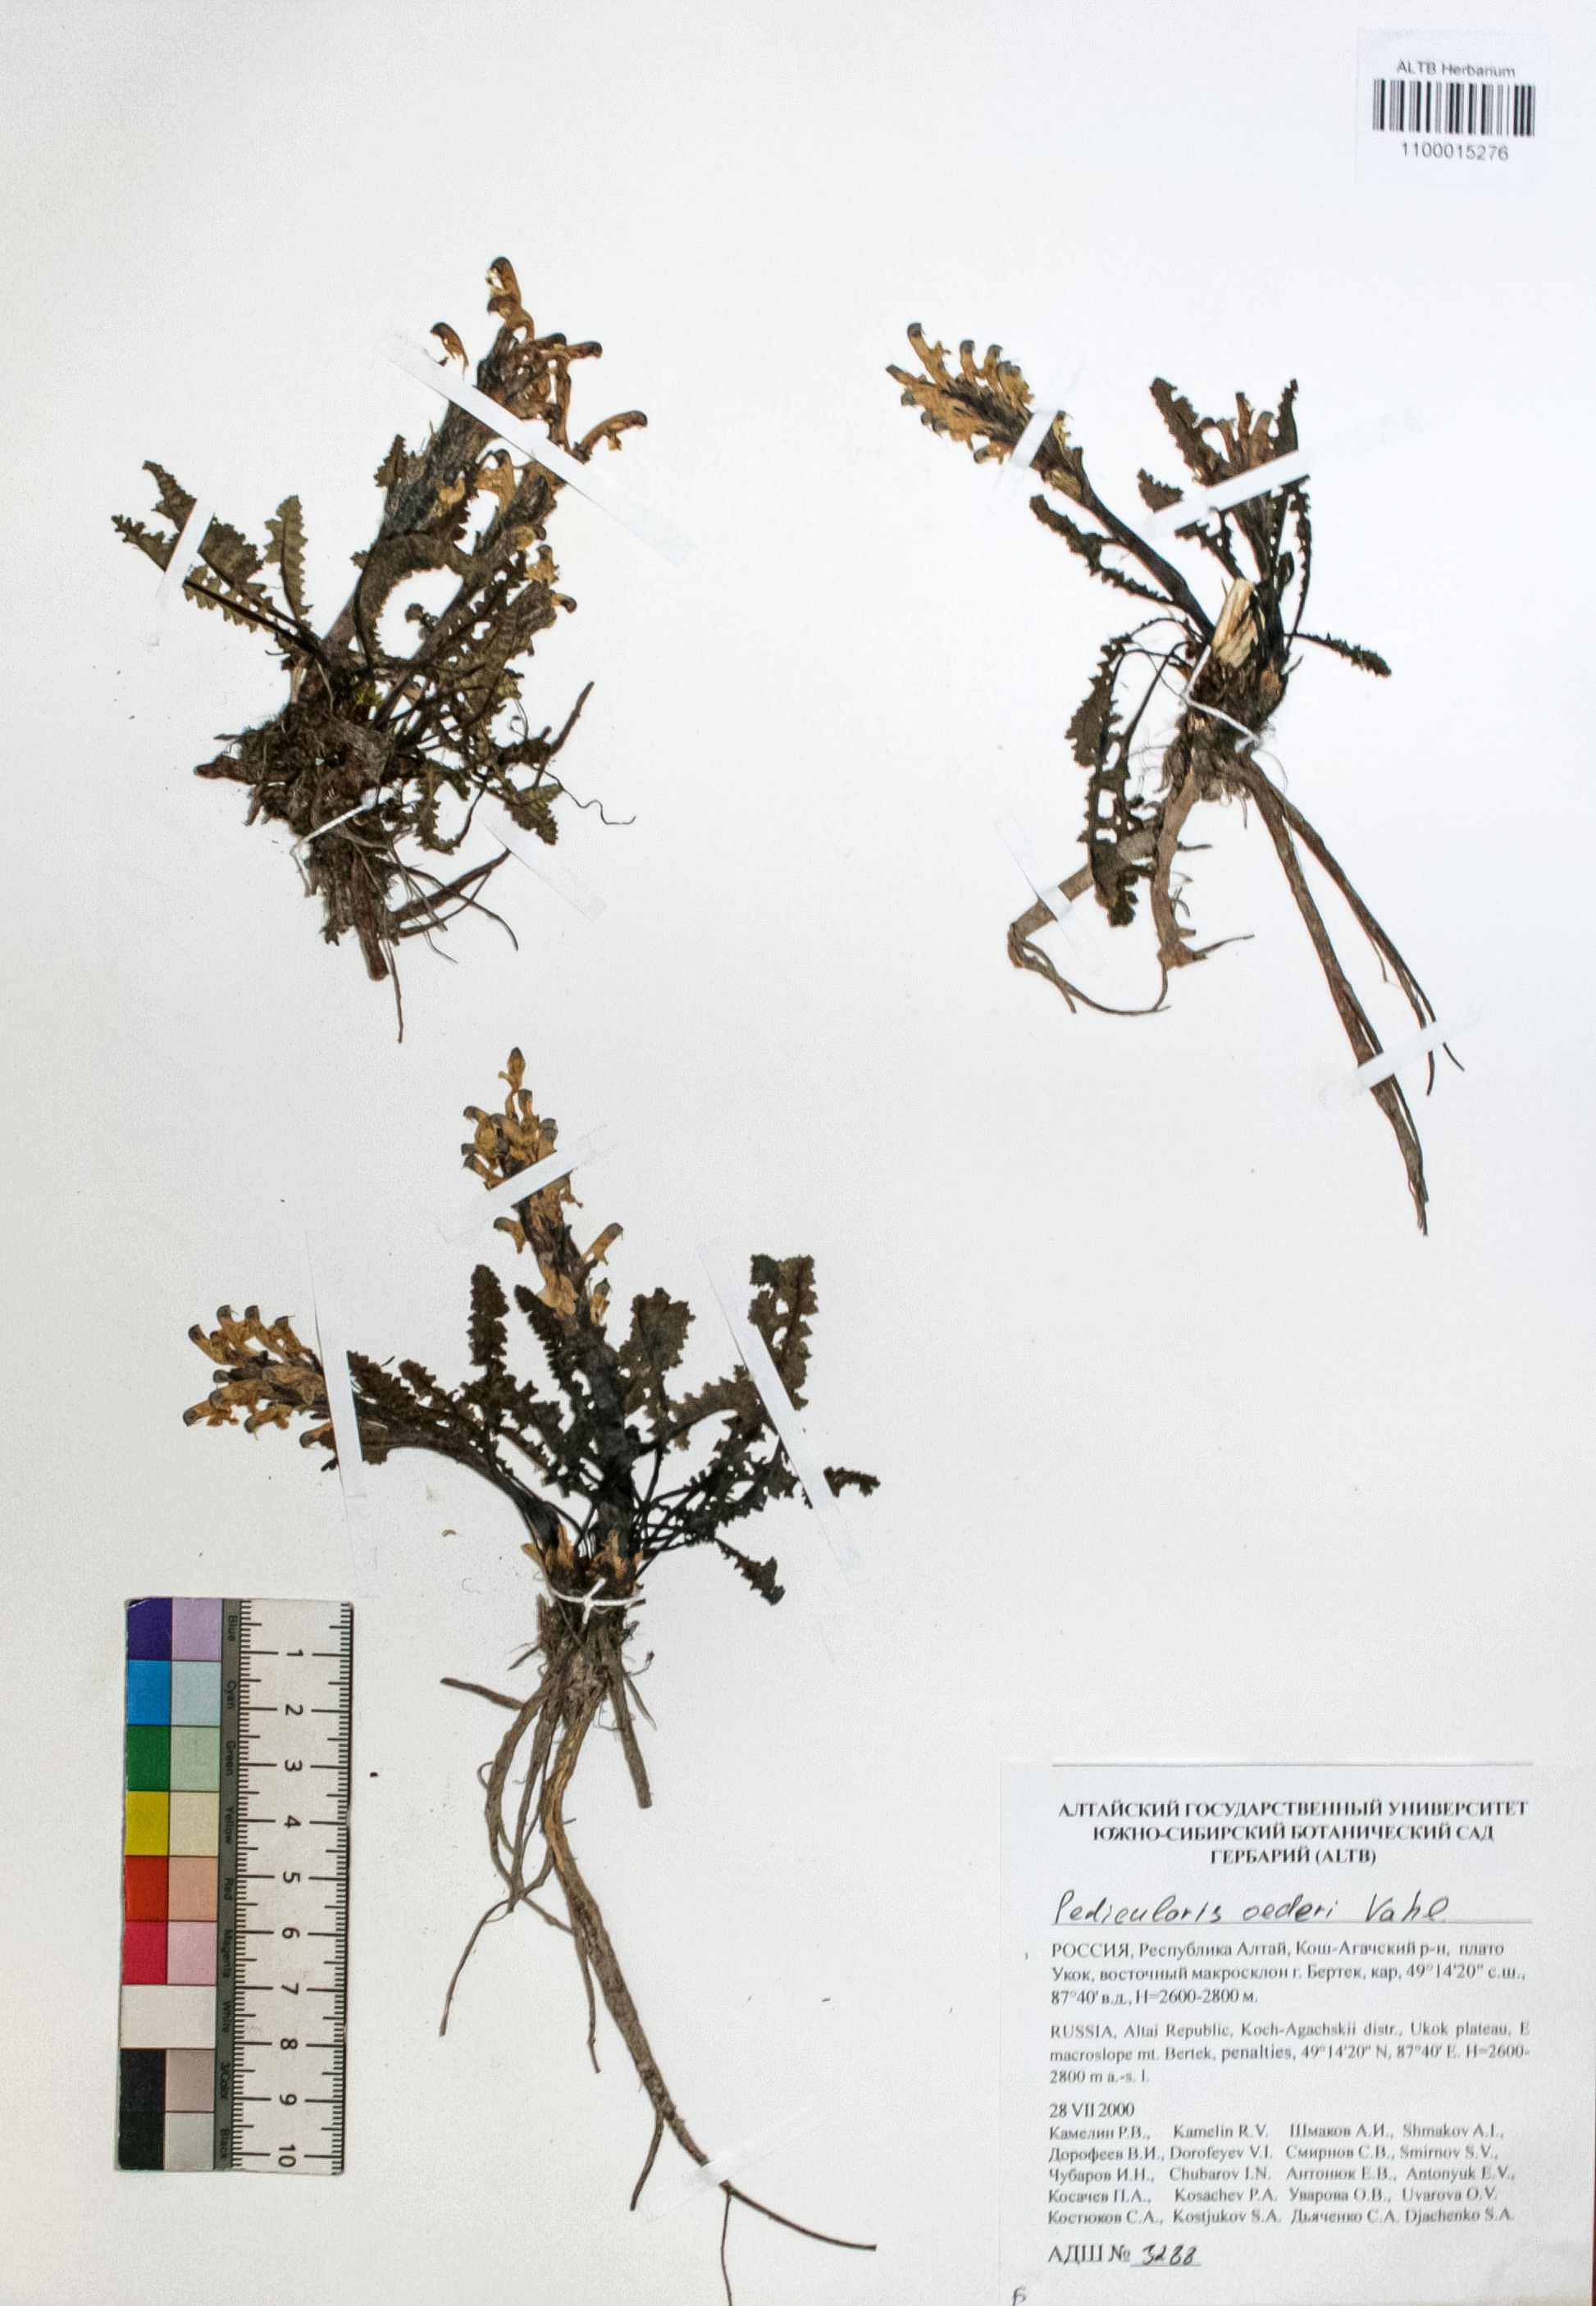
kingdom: Plantae
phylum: Tracheophyta
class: Magnoliopsida
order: Caryophyllales
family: Caryophyllaceae
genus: Silene
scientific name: Silene graminifolia
